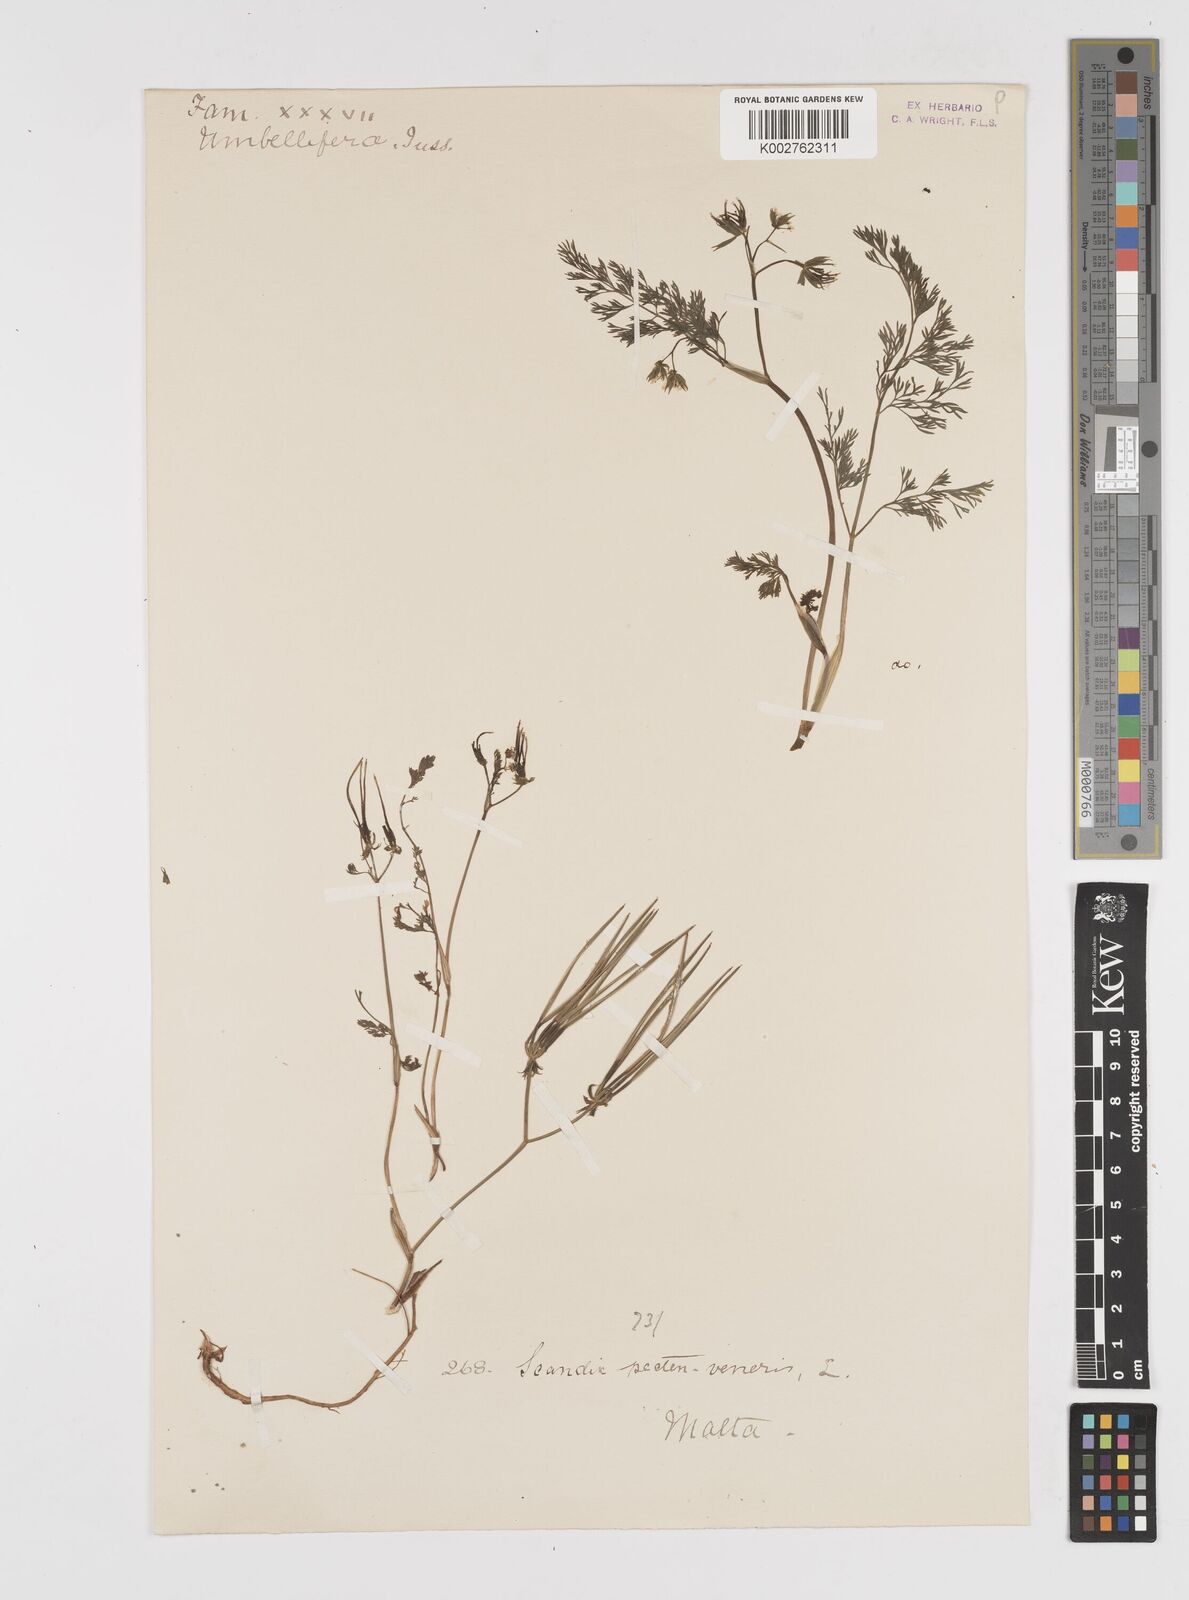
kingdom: Plantae
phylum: Tracheophyta
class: Magnoliopsida
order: Apiales
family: Apiaceae
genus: Scandix
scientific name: Scandix pecten-veneris
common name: Shepherd's-needle
